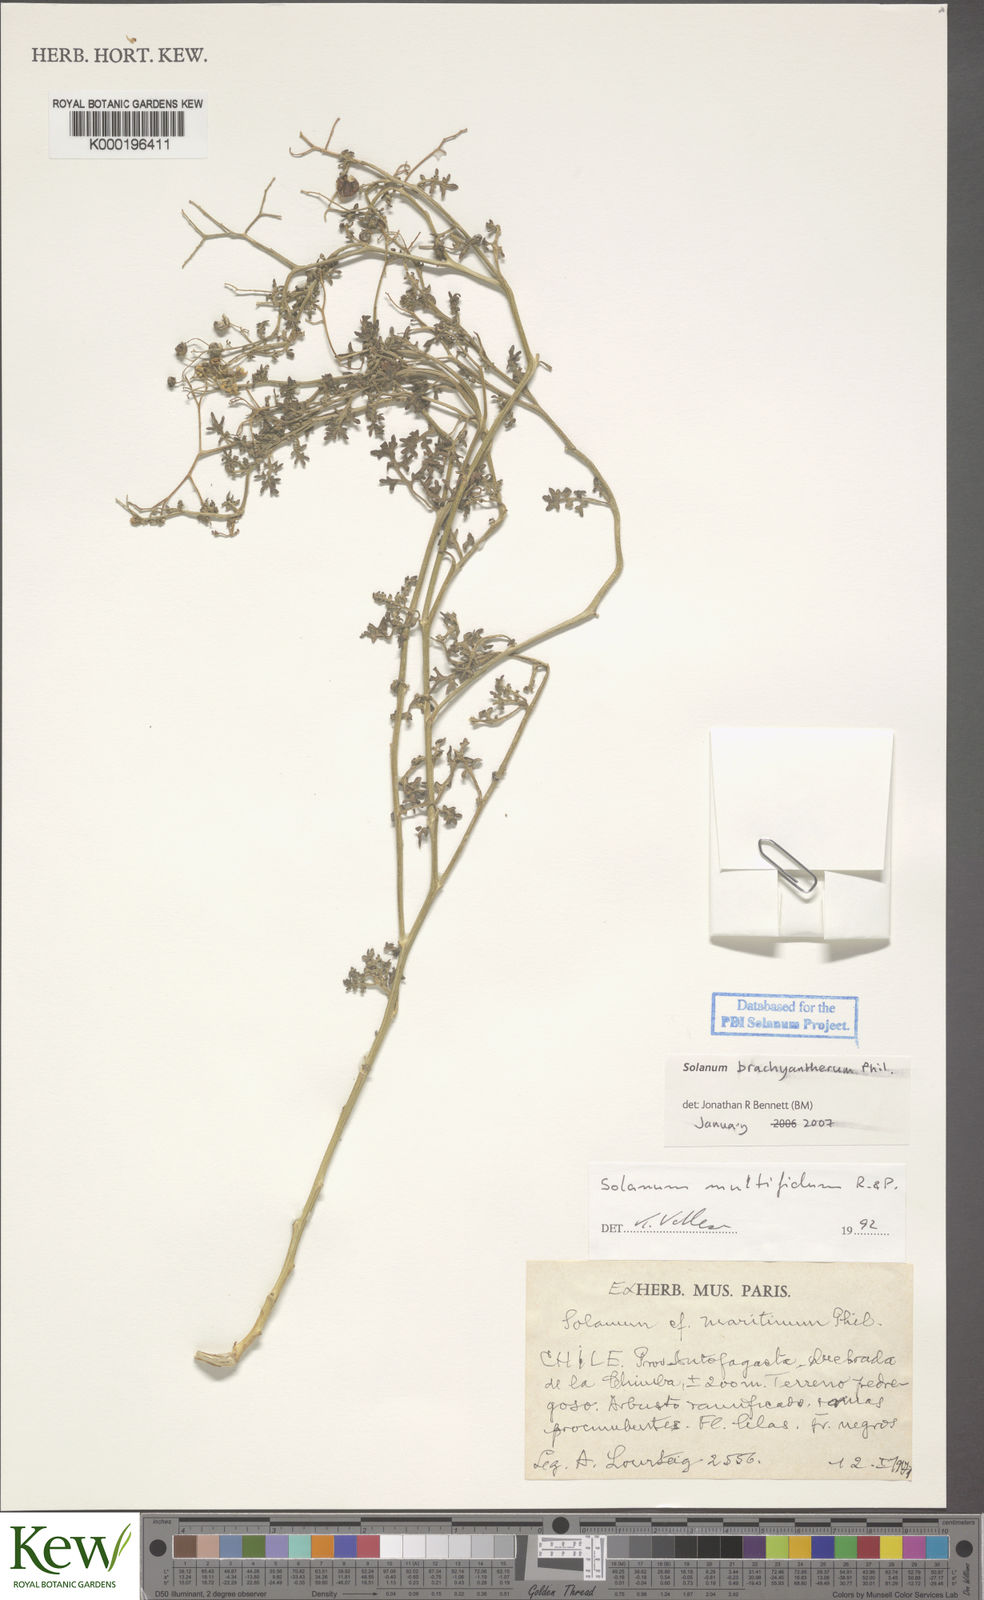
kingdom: Plantae
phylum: Tracheophyta
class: Magnoliopsida
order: Solanales
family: Solanaceae
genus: Solanum
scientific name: Solanum brachyantherum
